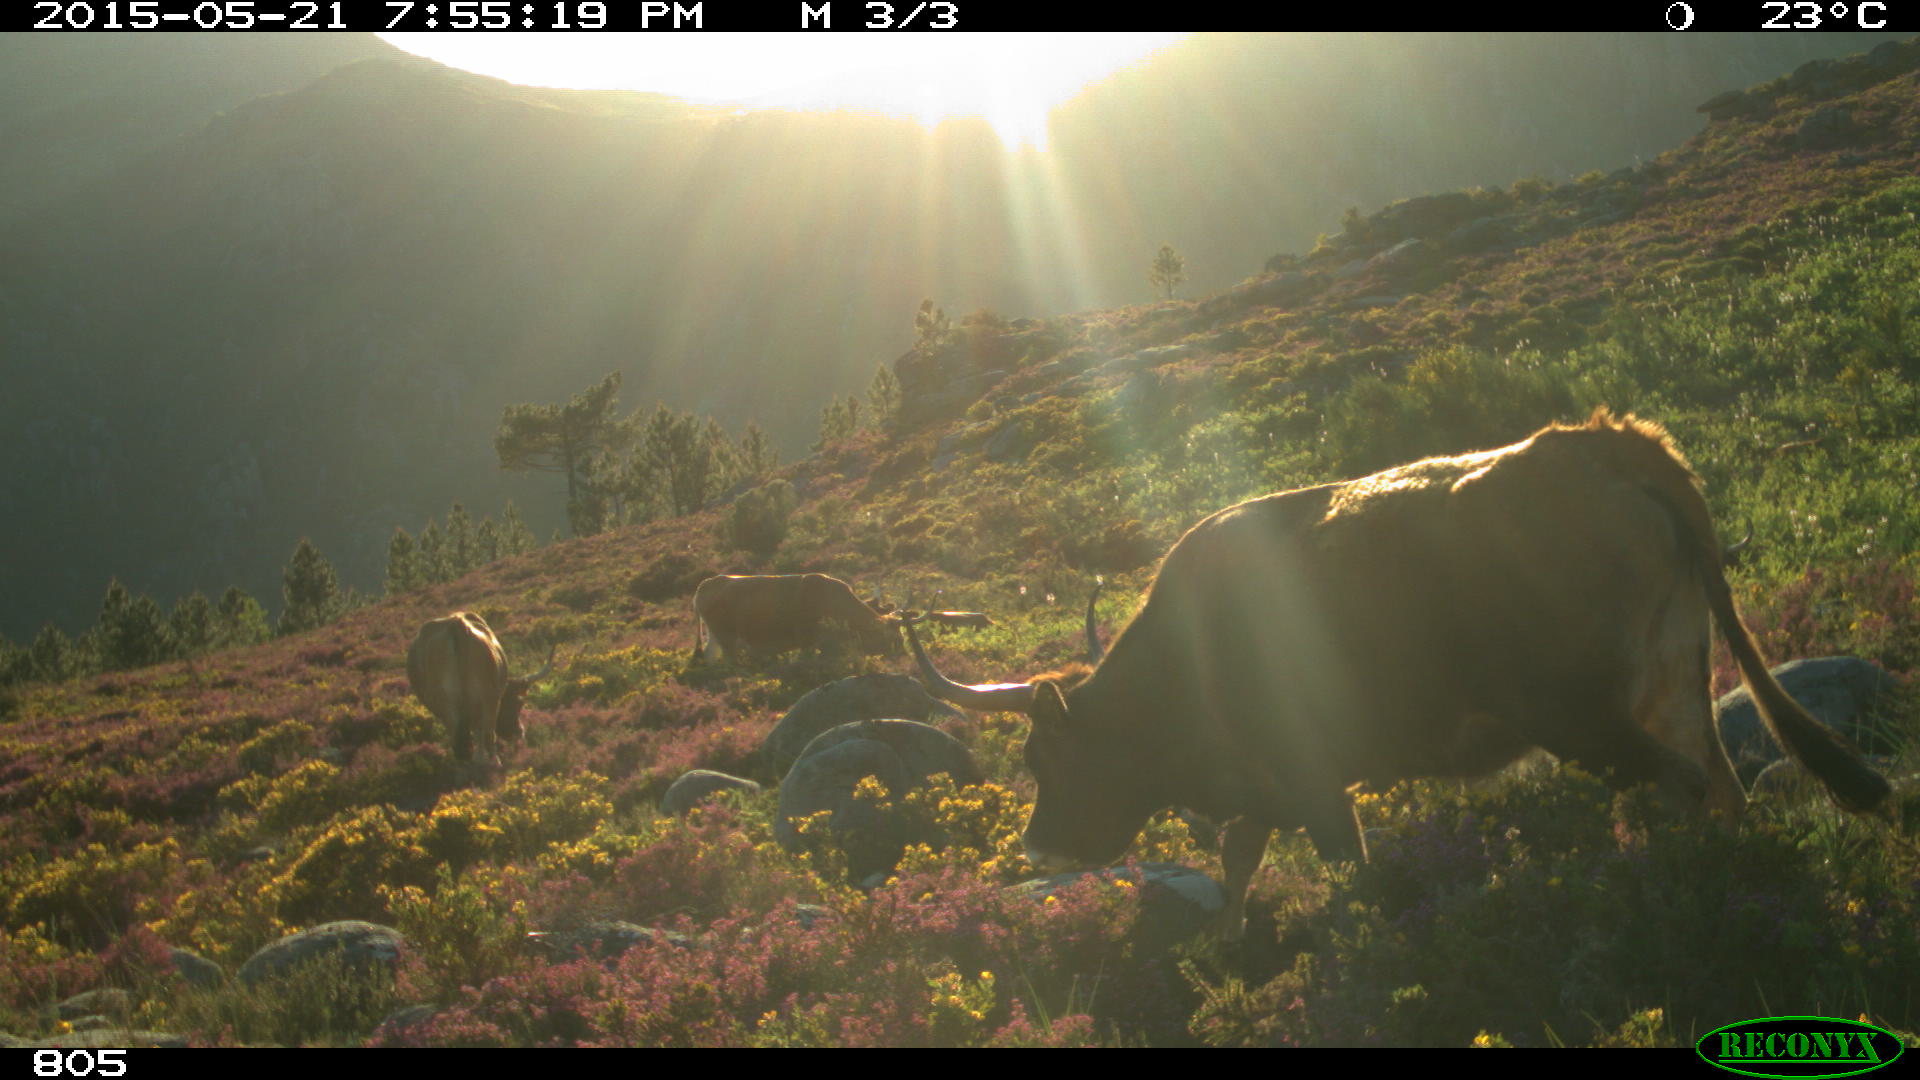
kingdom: Animalia
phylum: Chordata
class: Mammalia
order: Artiodactyla
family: Bovidae
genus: Bos
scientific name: Bos taurus
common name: Domesticated cattle
